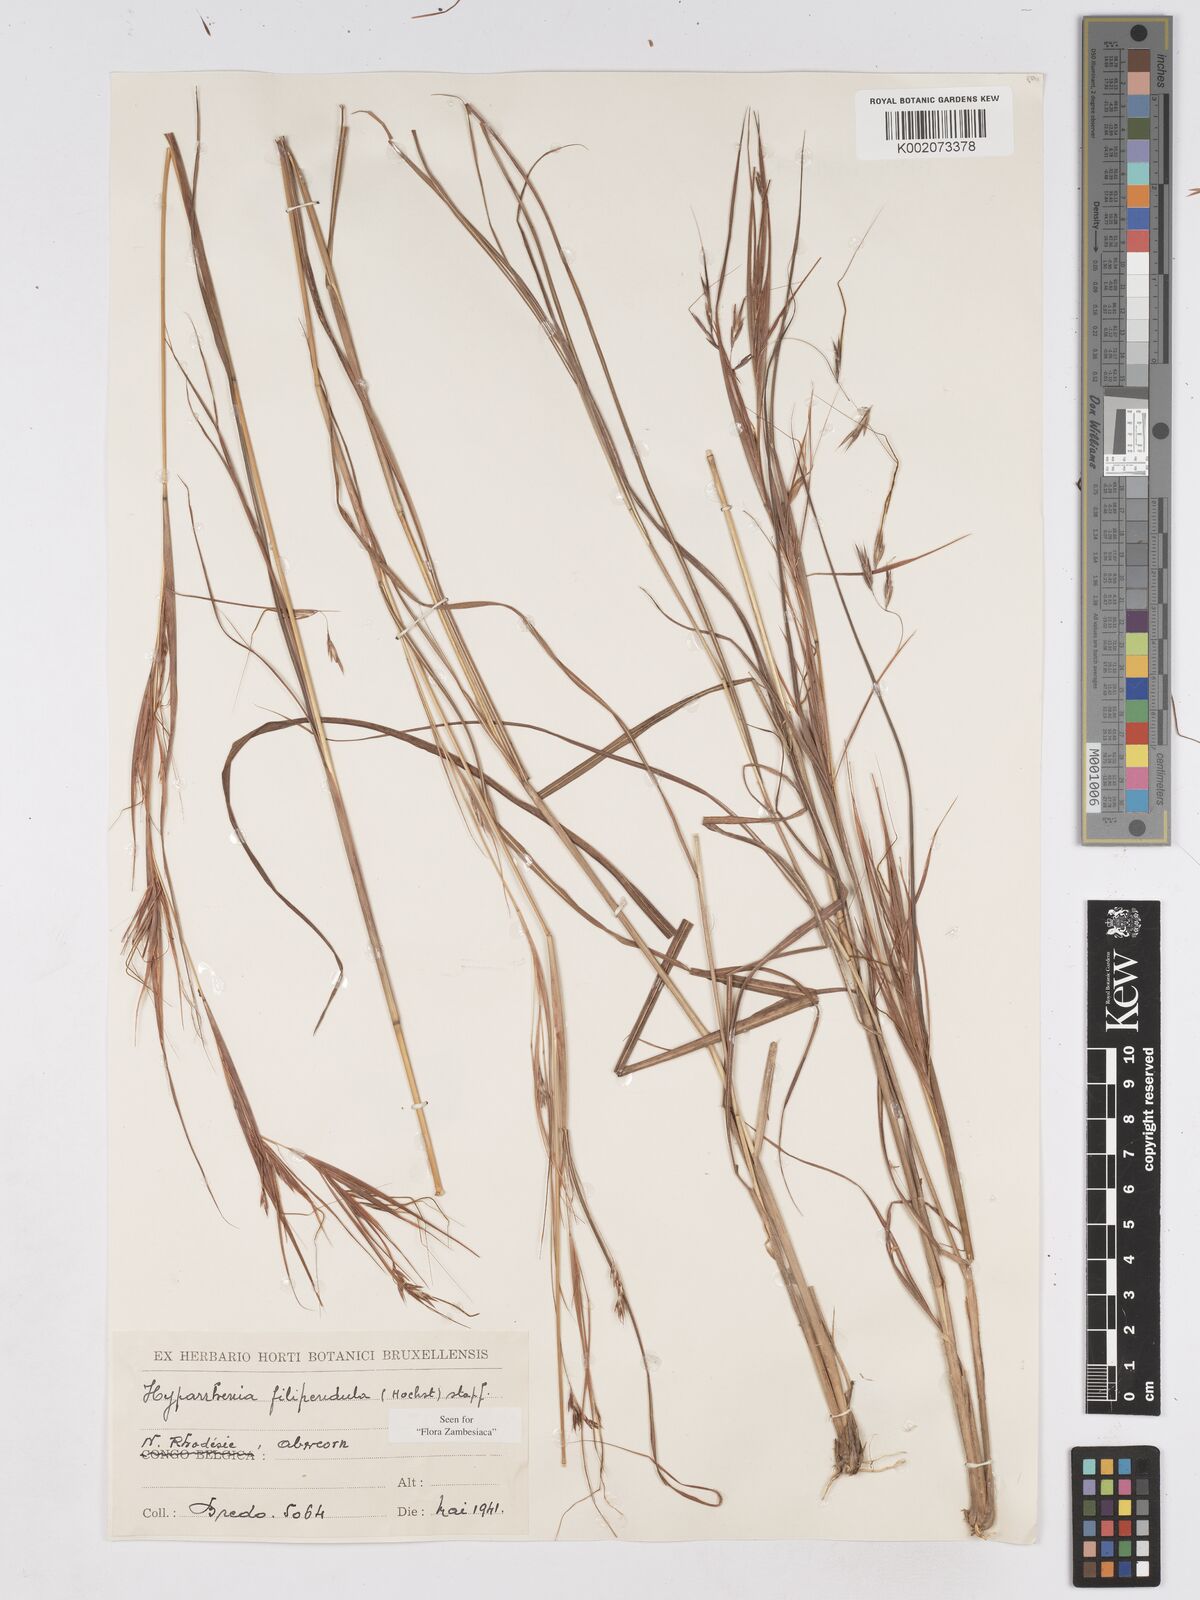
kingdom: Plantae
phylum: Tracheophyta
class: Liliopsida
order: Poales
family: Poaceae
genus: Hyparrhenia
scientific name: Hyparrhenia filipendula
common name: Tambookie grass
